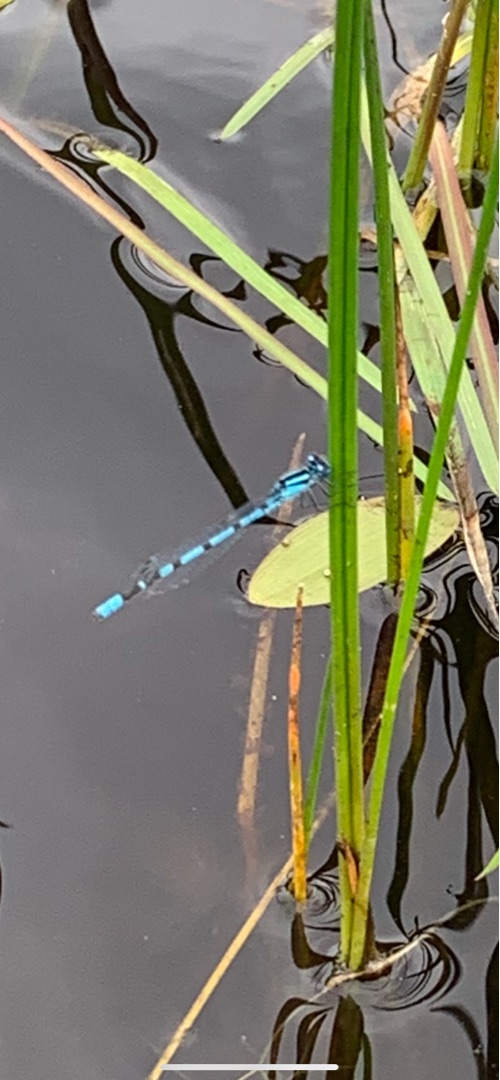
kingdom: Animalia
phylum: Arthropoda
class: Insecta
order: Odonata
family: Coenagrionidae
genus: Enallagma
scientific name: Enallagma cyathigerum
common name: Almindelig vandnymfe
